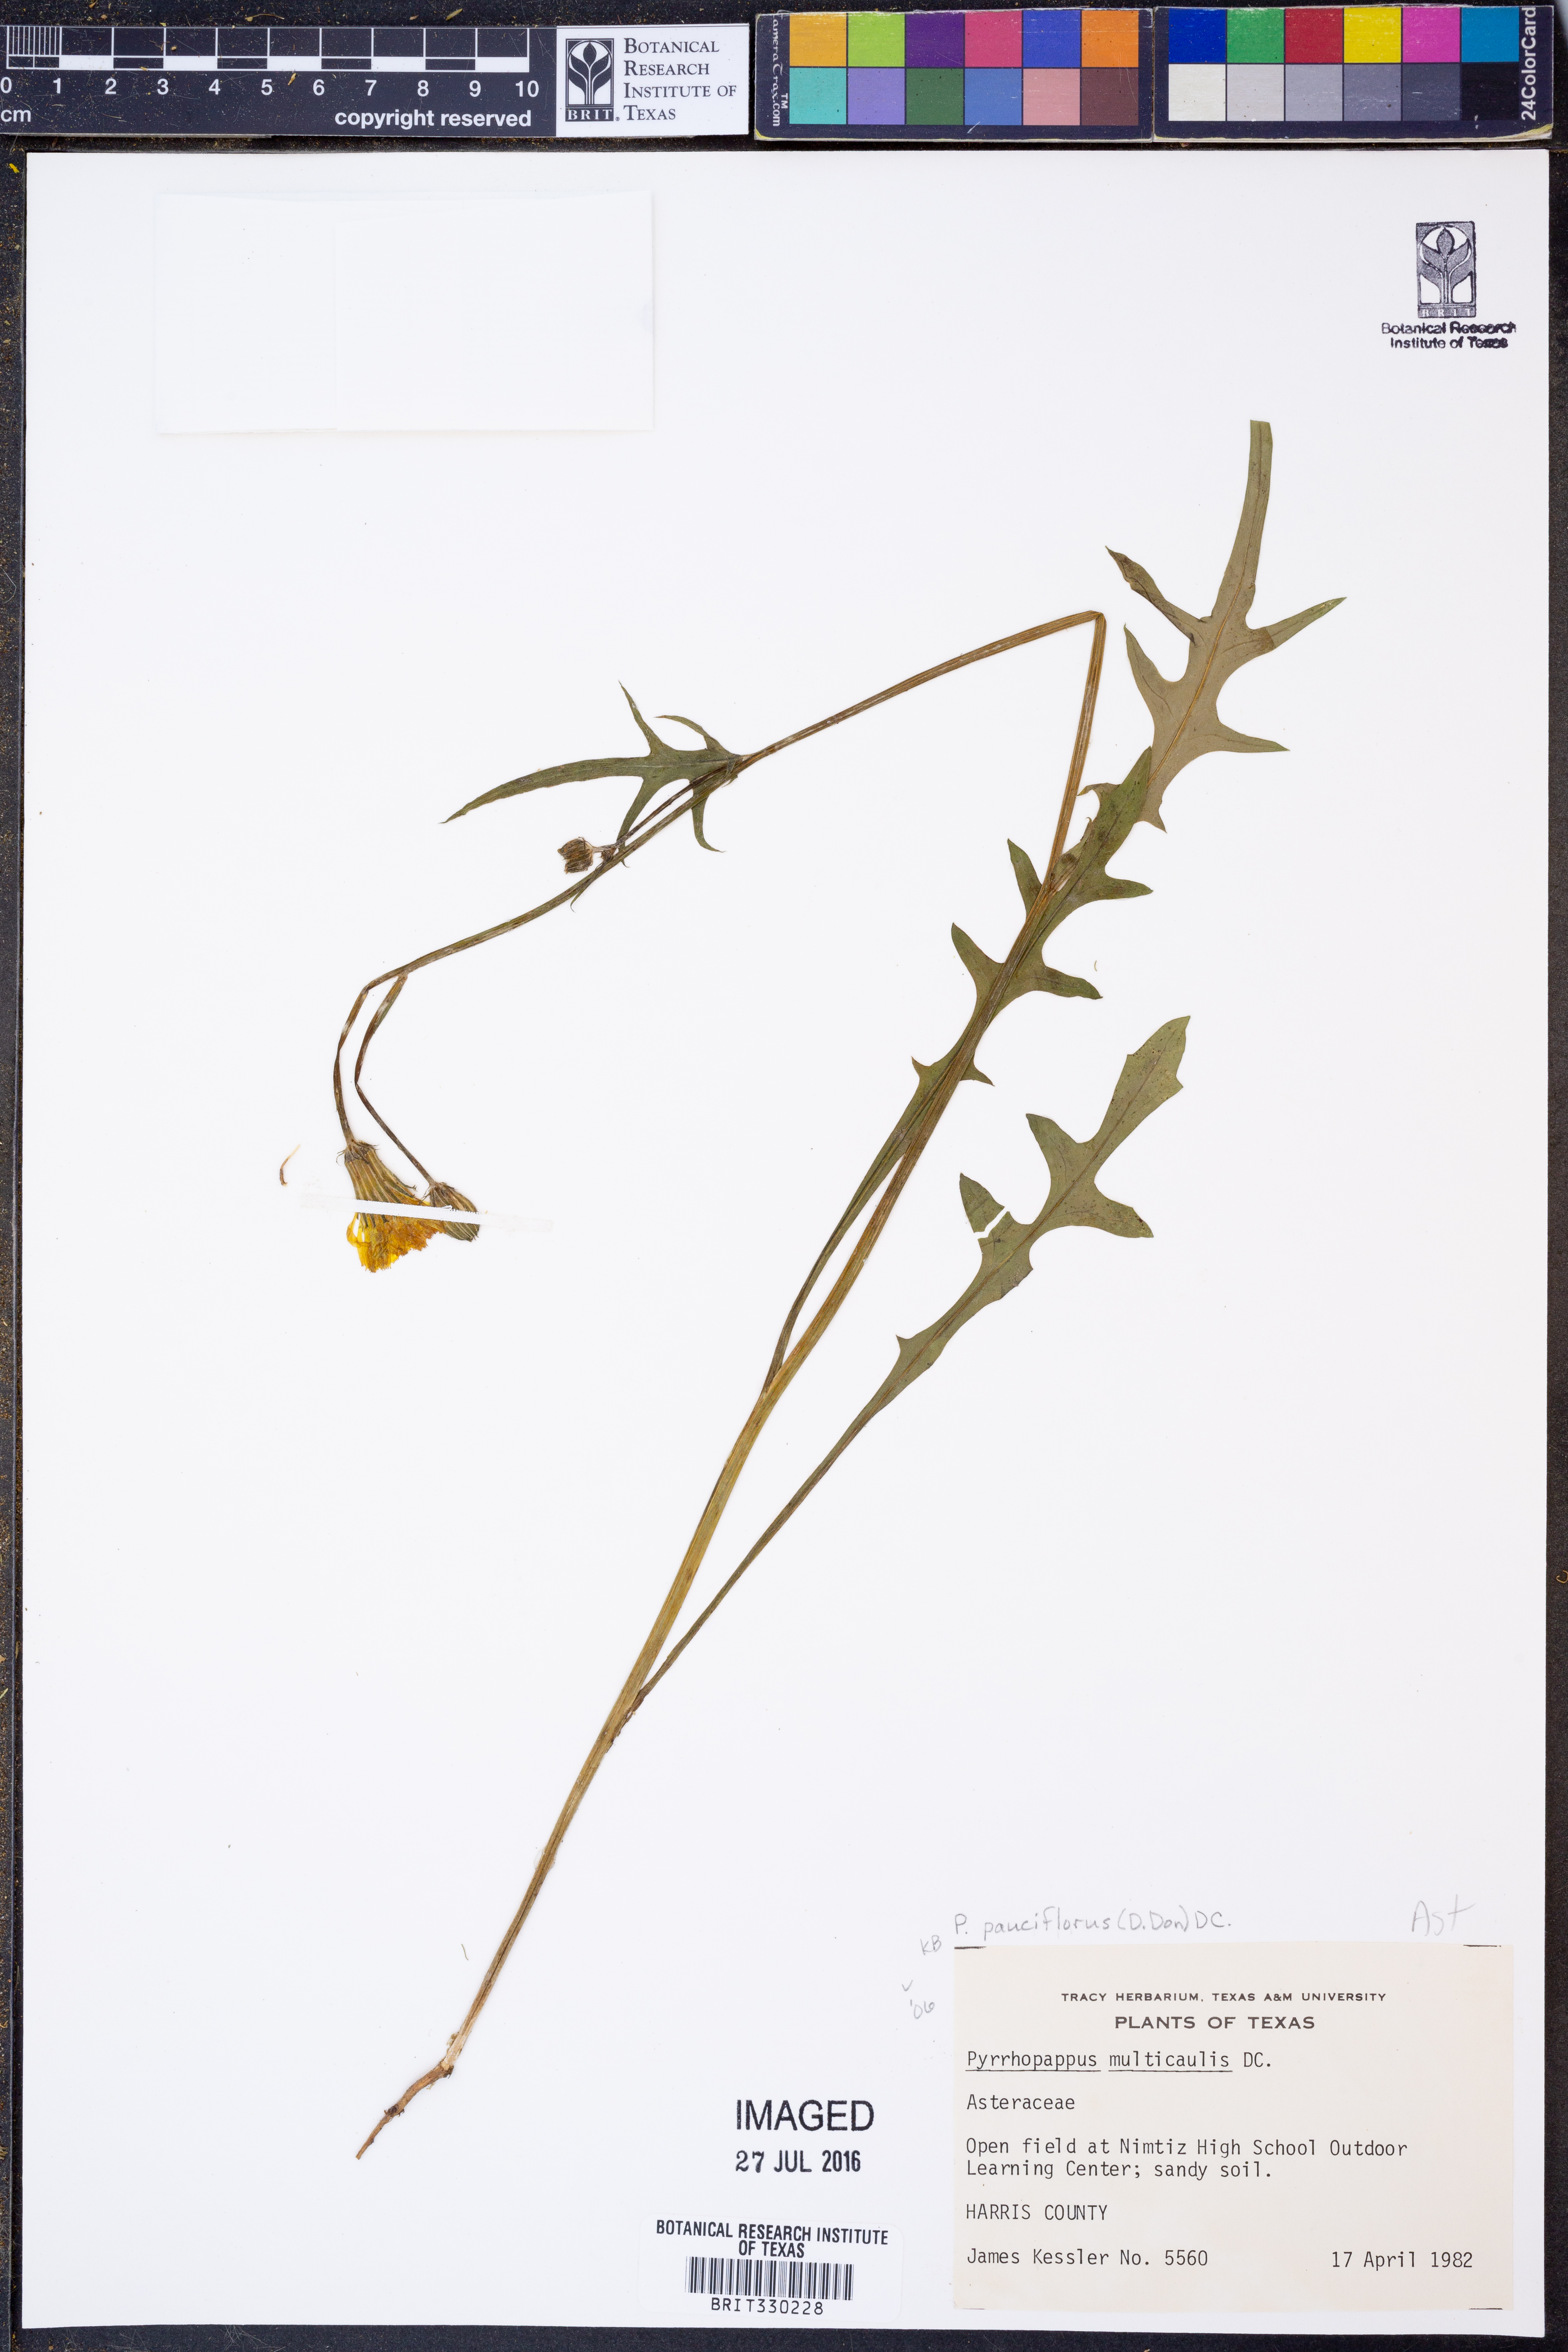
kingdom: Plantae
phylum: Tracheophyta
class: Magnoliopsida
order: Asterales
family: Asteraceae
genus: Pyrrhopappus
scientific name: Pyrrhopappus pauciflorus
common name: Texas false dandelion
